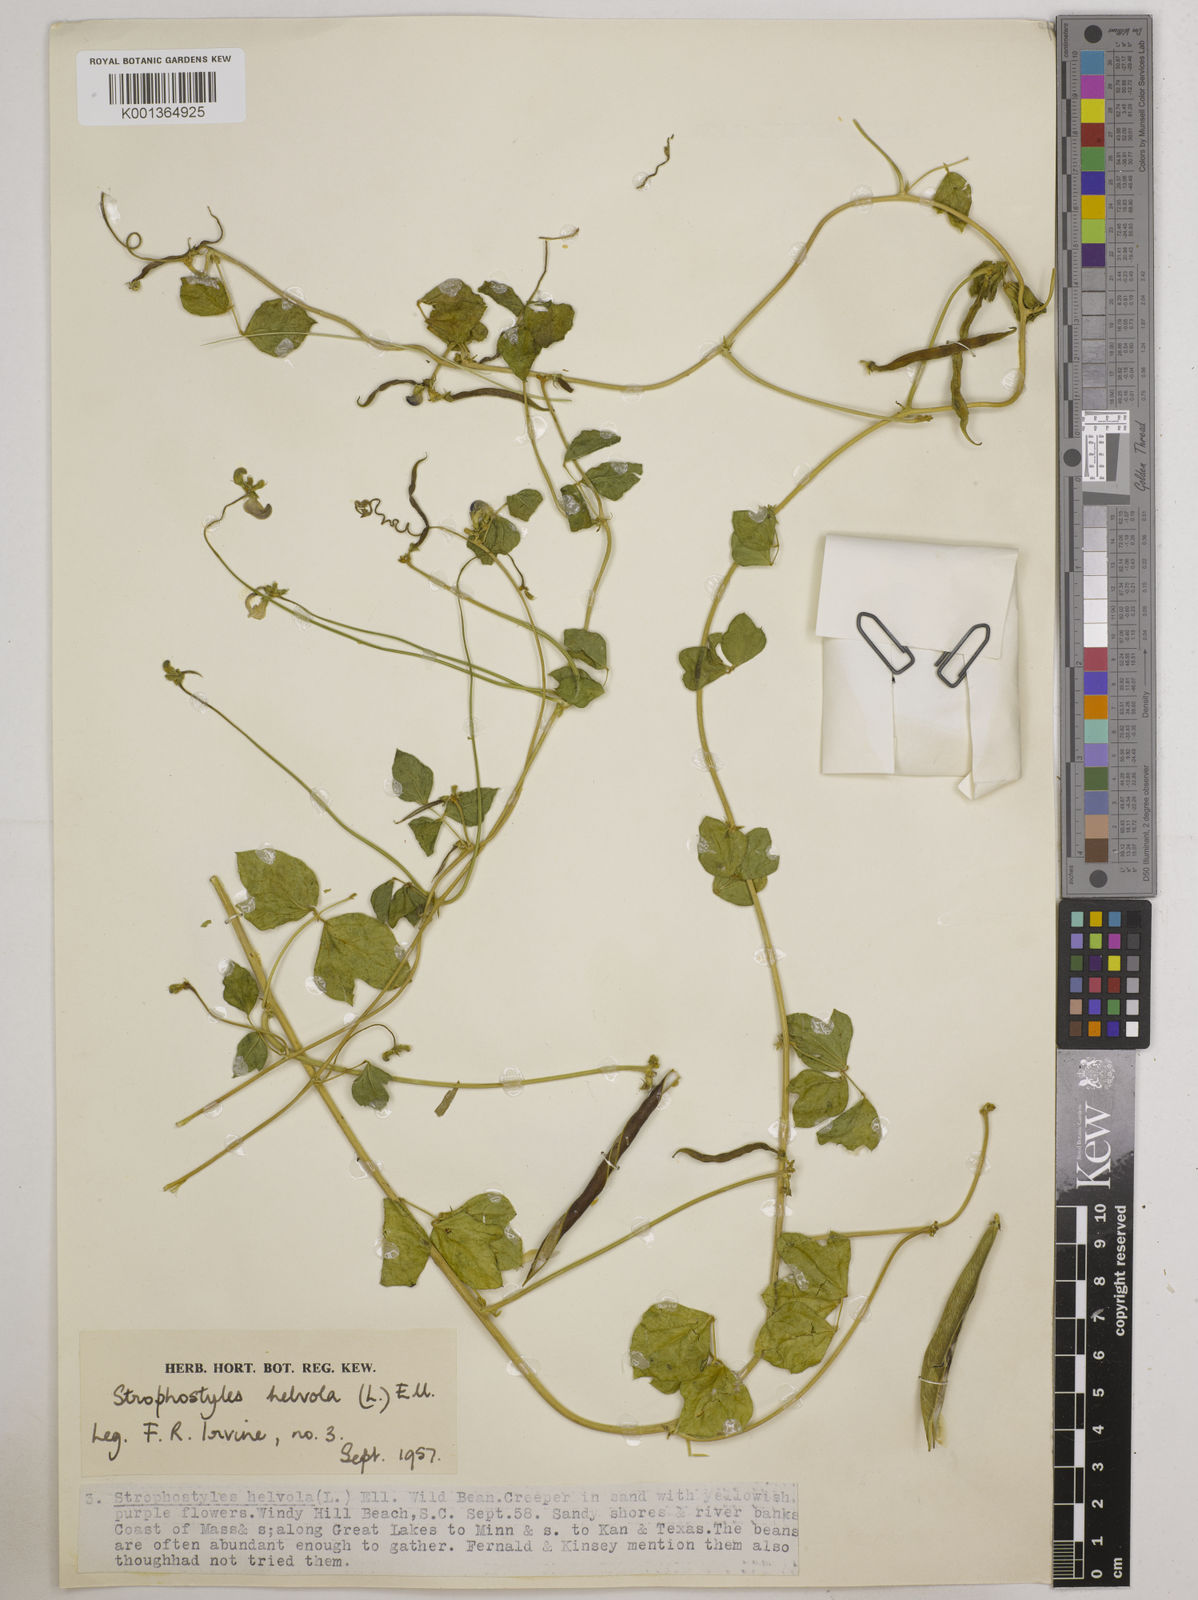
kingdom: Plantae
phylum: Tracheophyta
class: Magnoliopsida
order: Fabales
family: Fabaceae
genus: Strophostyles
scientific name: Strophostyles
